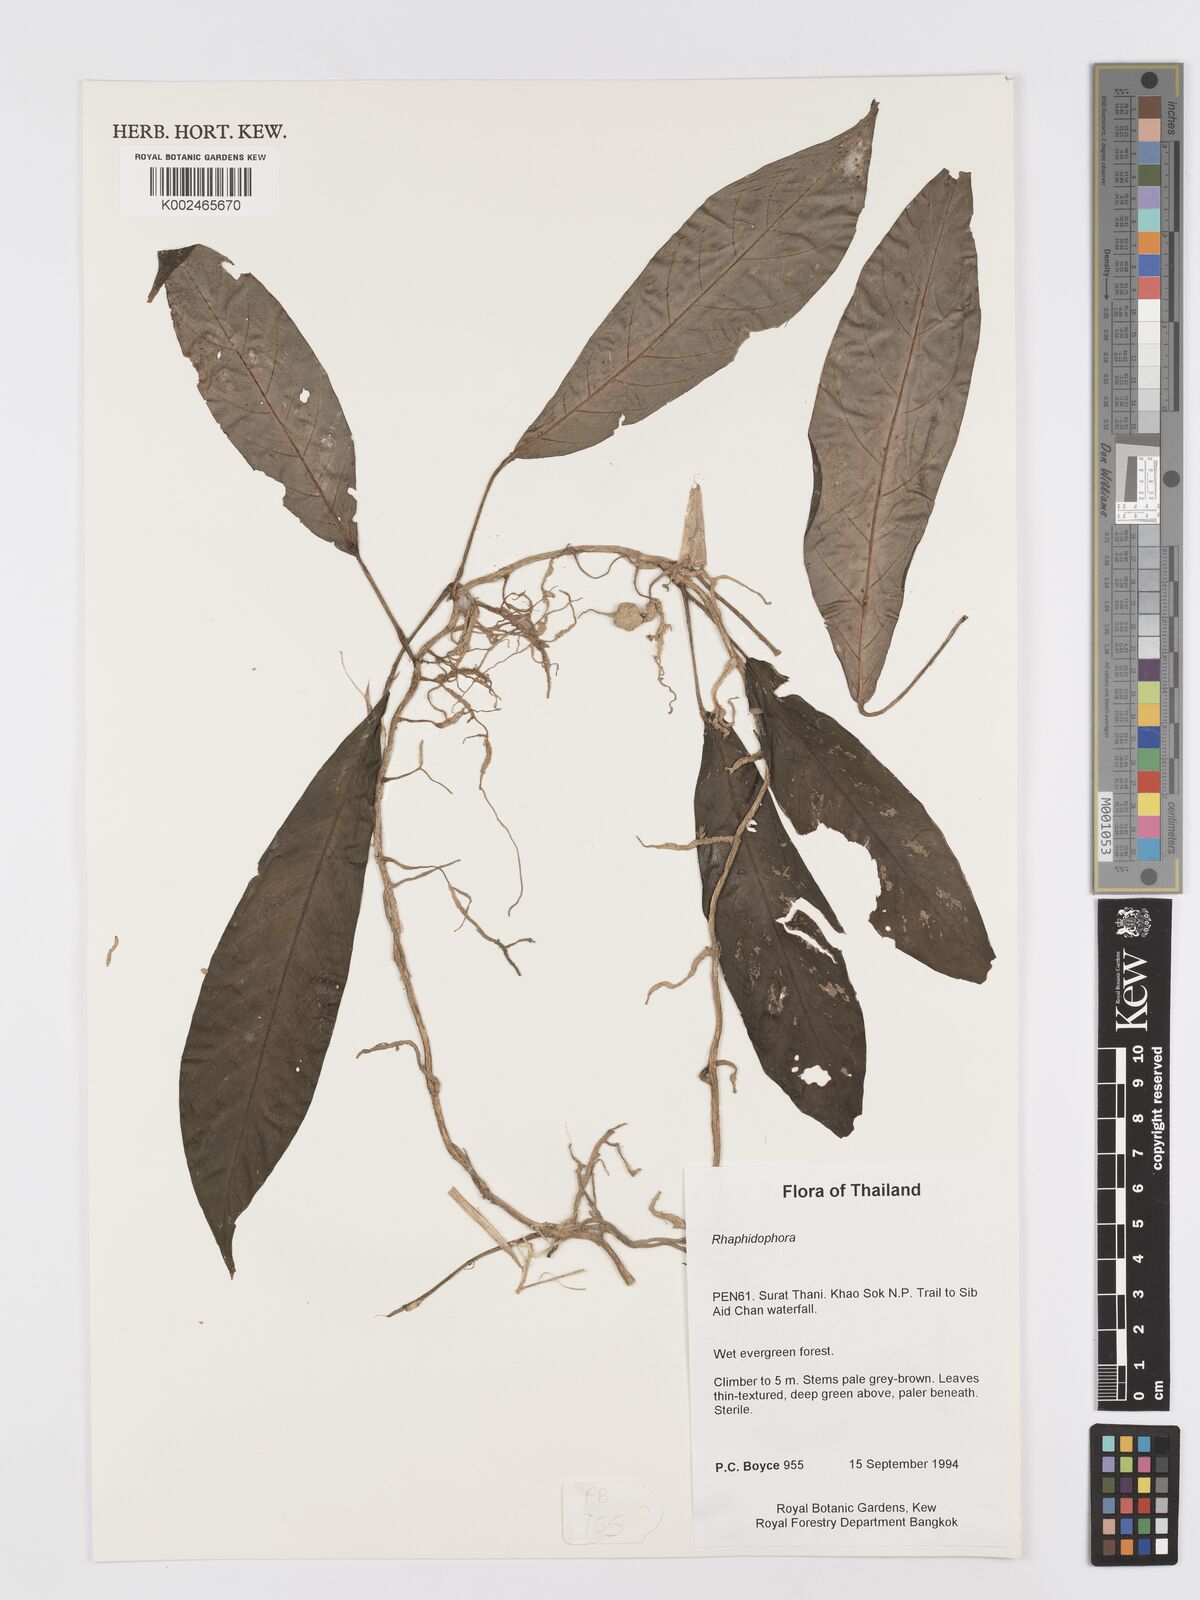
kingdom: Plantae
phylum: Tracheophyta
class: Liliopsida
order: Alismatales
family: Araceae
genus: Rhaphidophora
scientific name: Rhaphidophora lobbii
